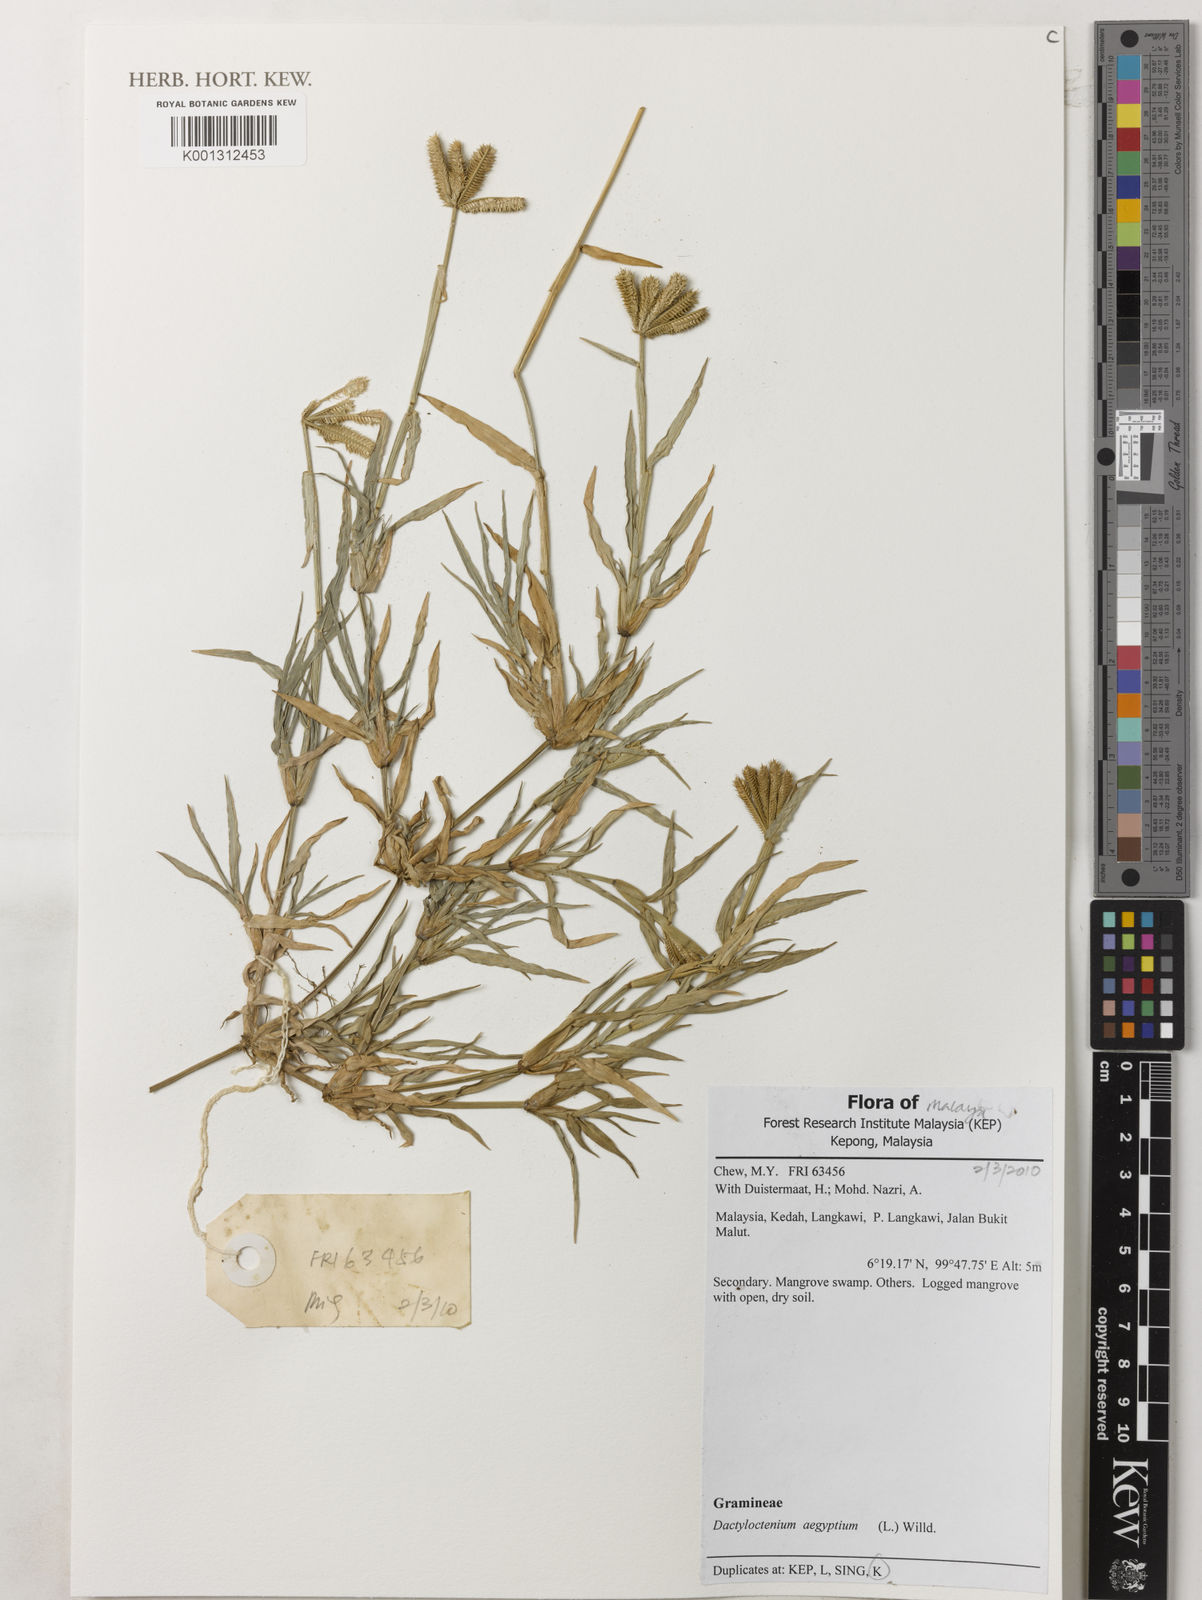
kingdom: Plantae
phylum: Tracheophyta
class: Liliopsida
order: Poales
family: Poaceae
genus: Dactyloctenium
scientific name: Dactyloctenium aegyptium
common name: Egyptian grass
